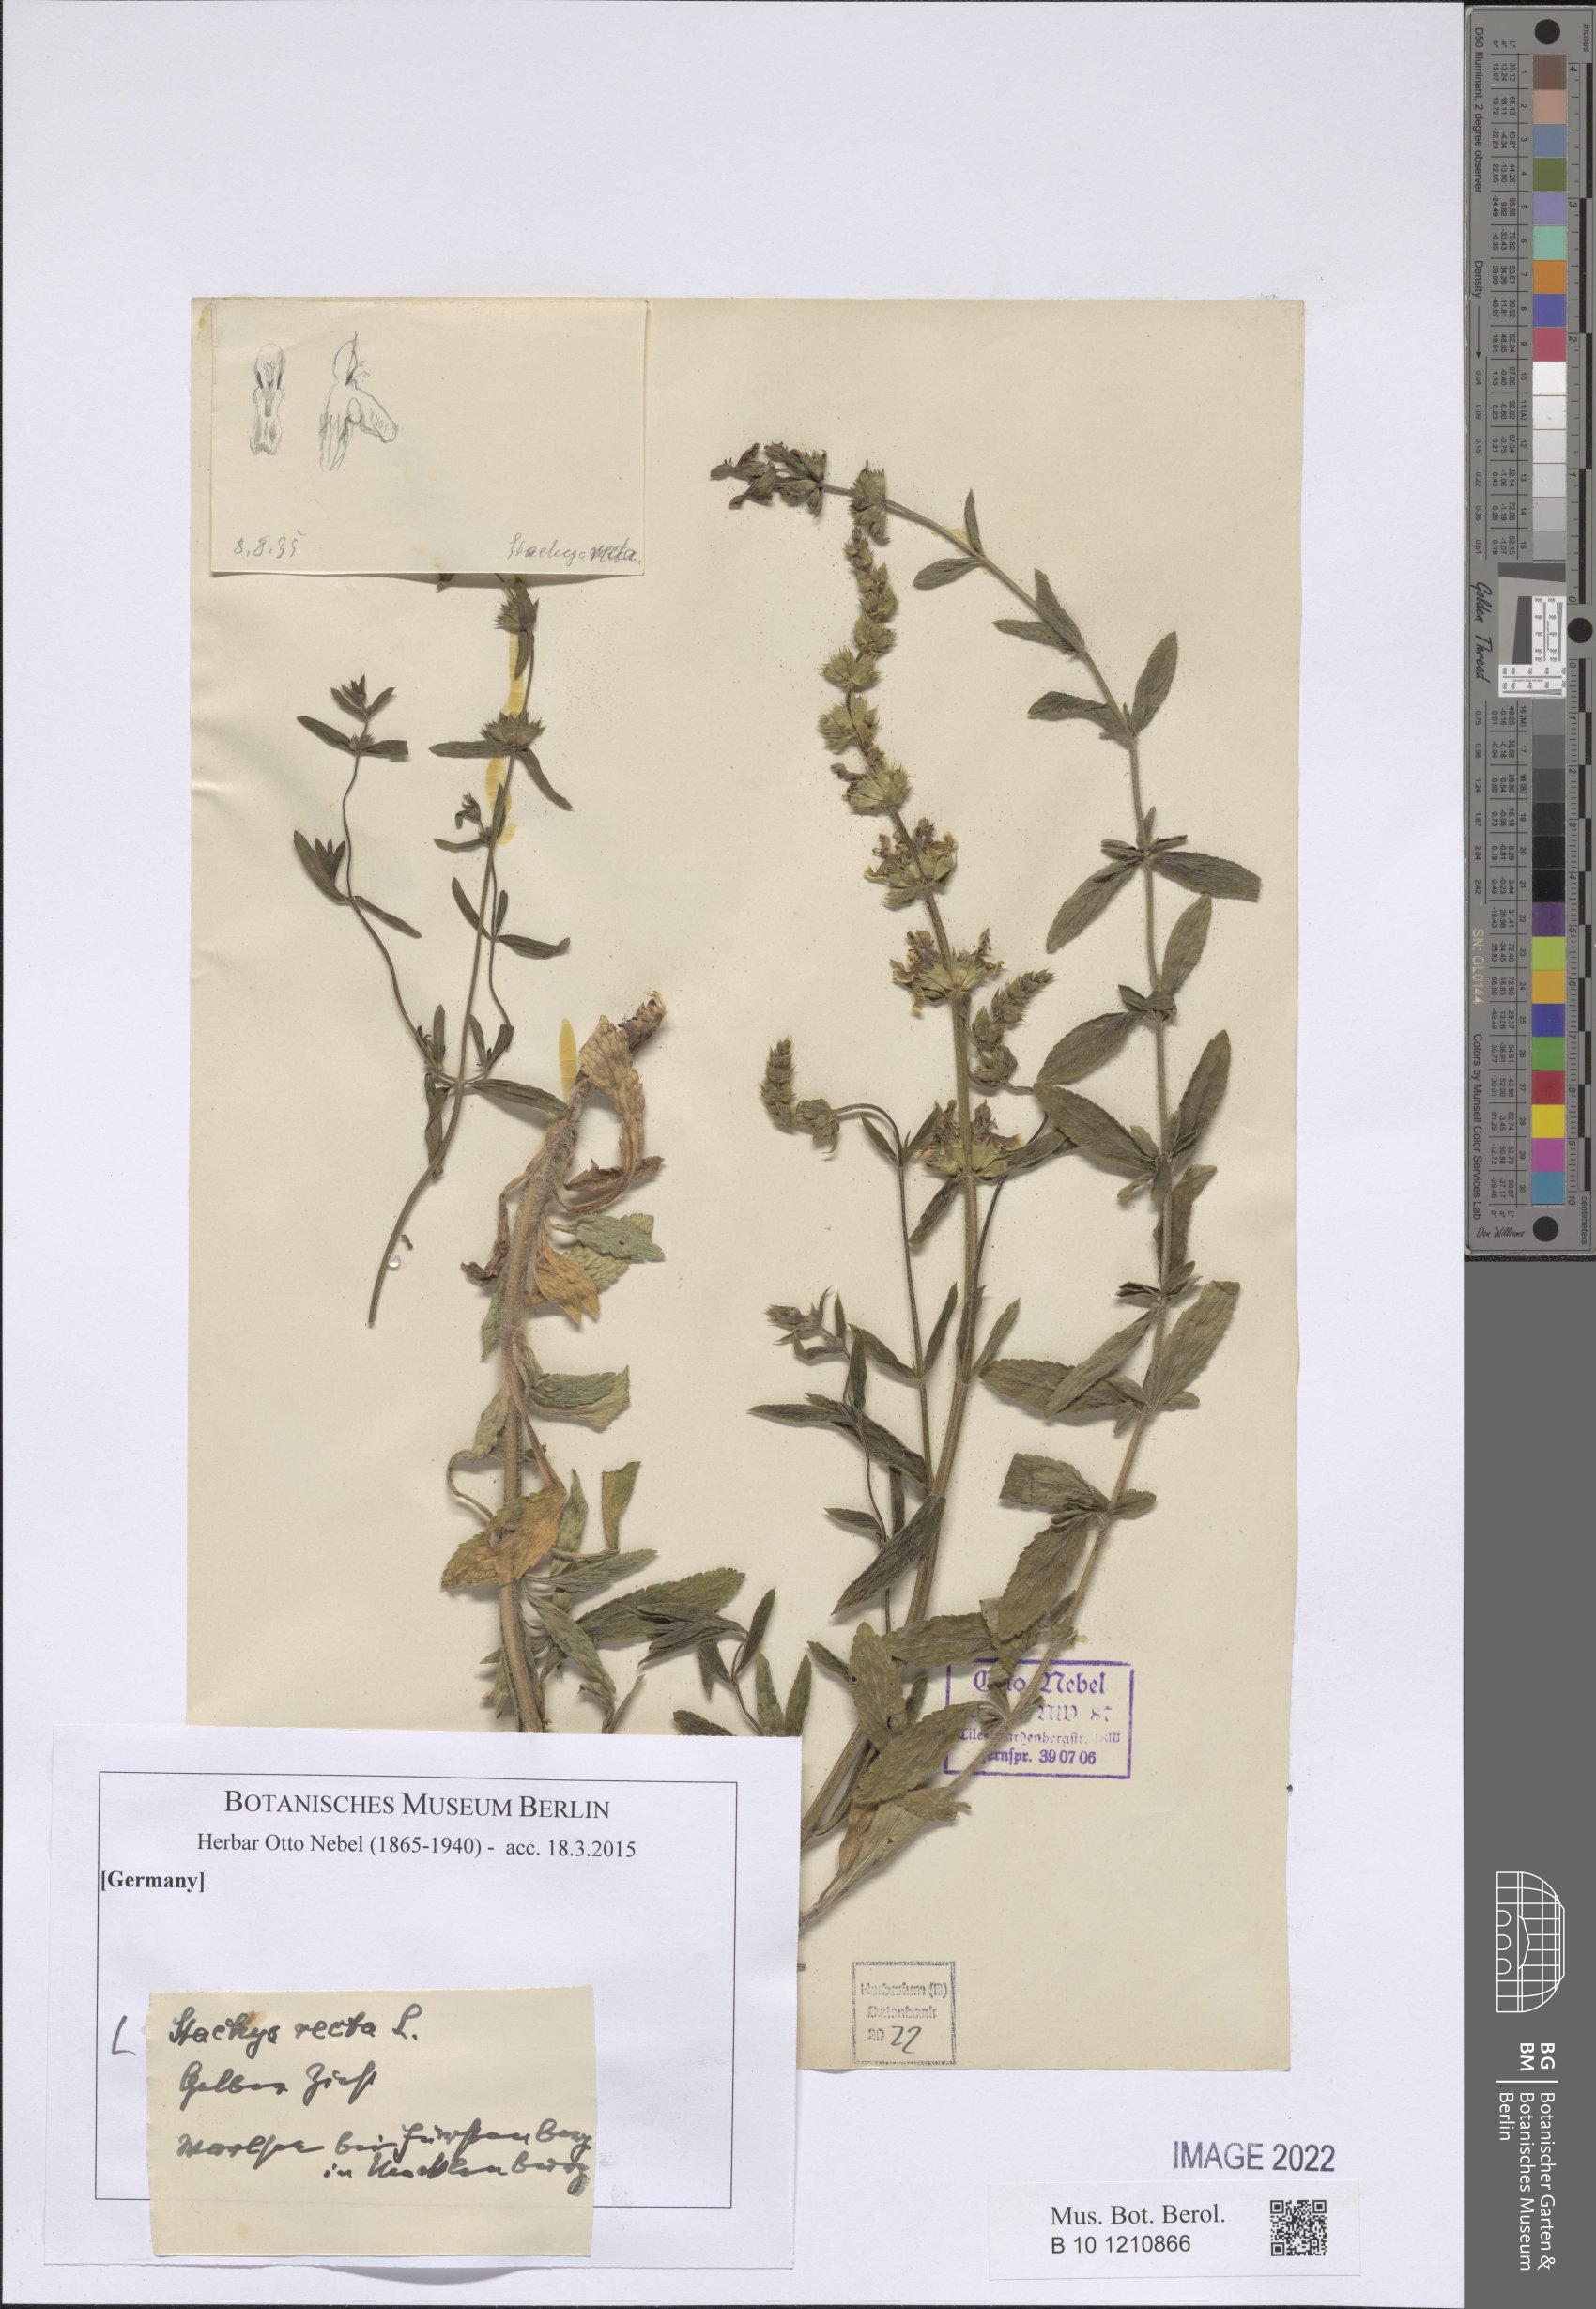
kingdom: Plantae
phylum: Tracheophyta
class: Magnoliopsida
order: Lamiales
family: Lamiaceae
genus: Stachys
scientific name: Stachys recta
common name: Perennial yellow-woundwort
